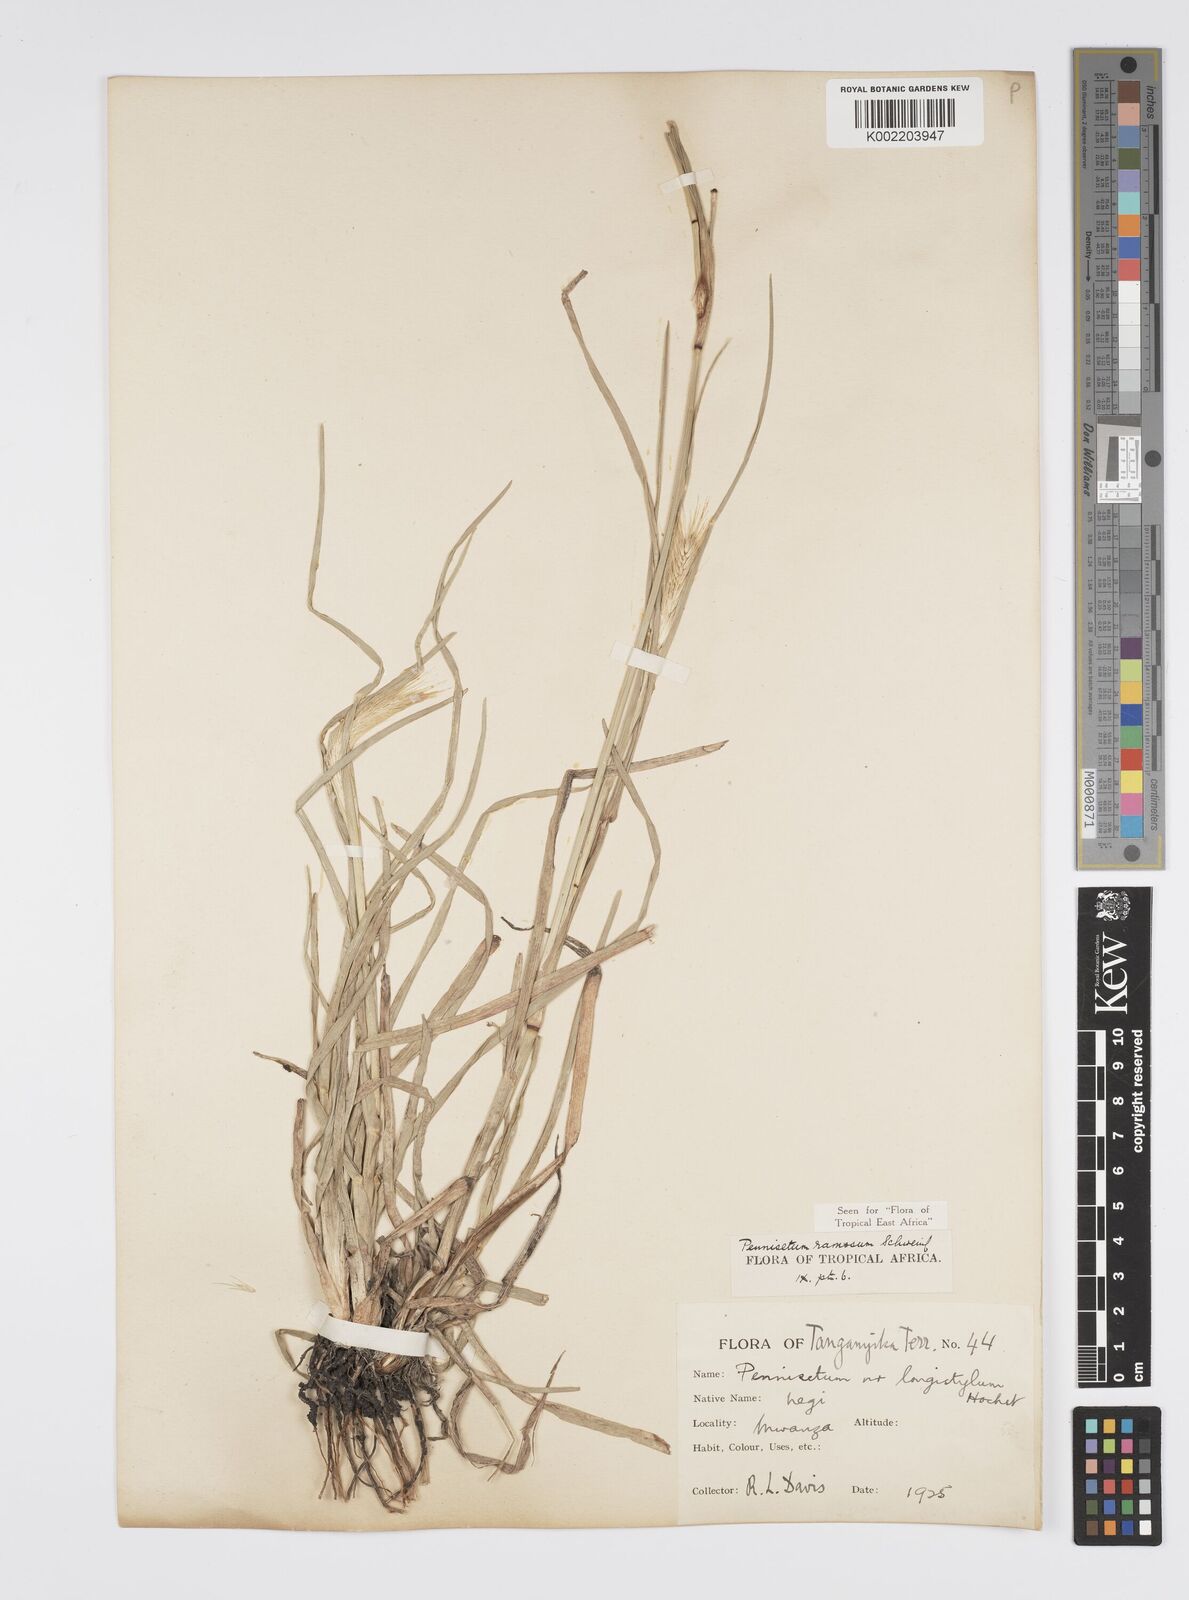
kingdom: Plantae
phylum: Tracheophyta
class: Liliopsida
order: Poales
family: Poaceae
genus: Cenchrus
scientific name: Cenchrus ramosus
